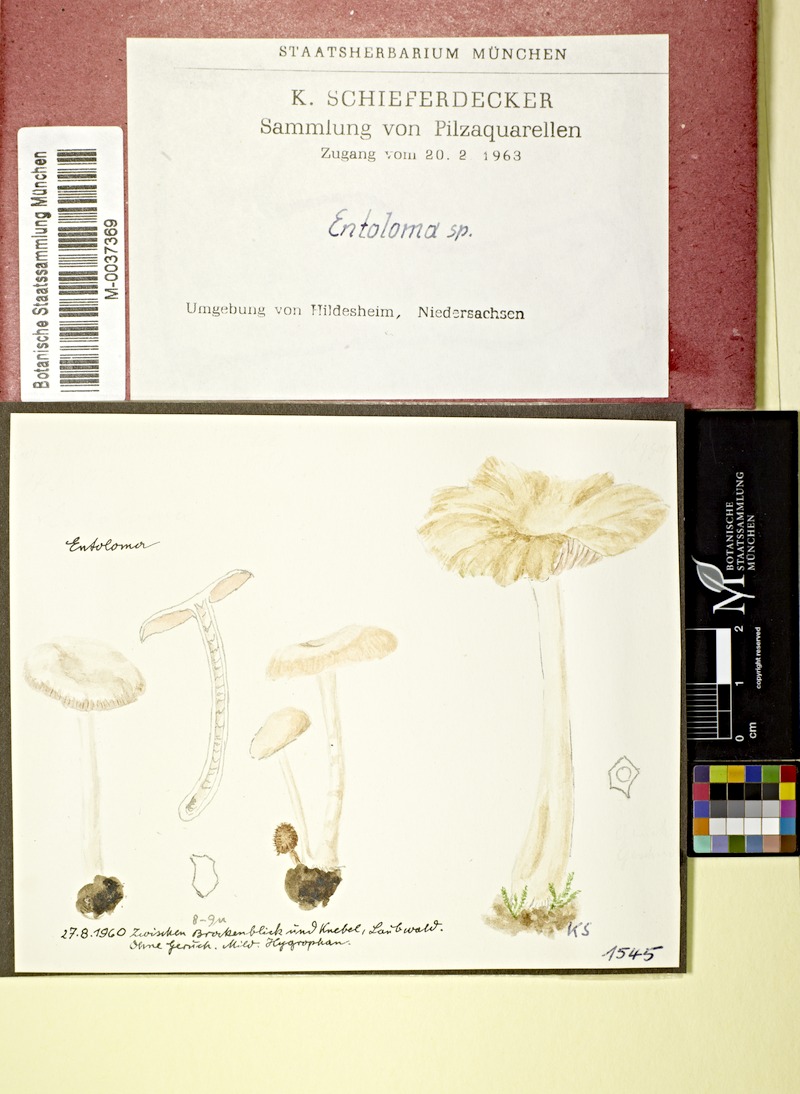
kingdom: Fungi
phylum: Basidiomycota
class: Agaricomycetes
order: Agaricales
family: Entolomataceae
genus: Entoloma
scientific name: Entoloma
